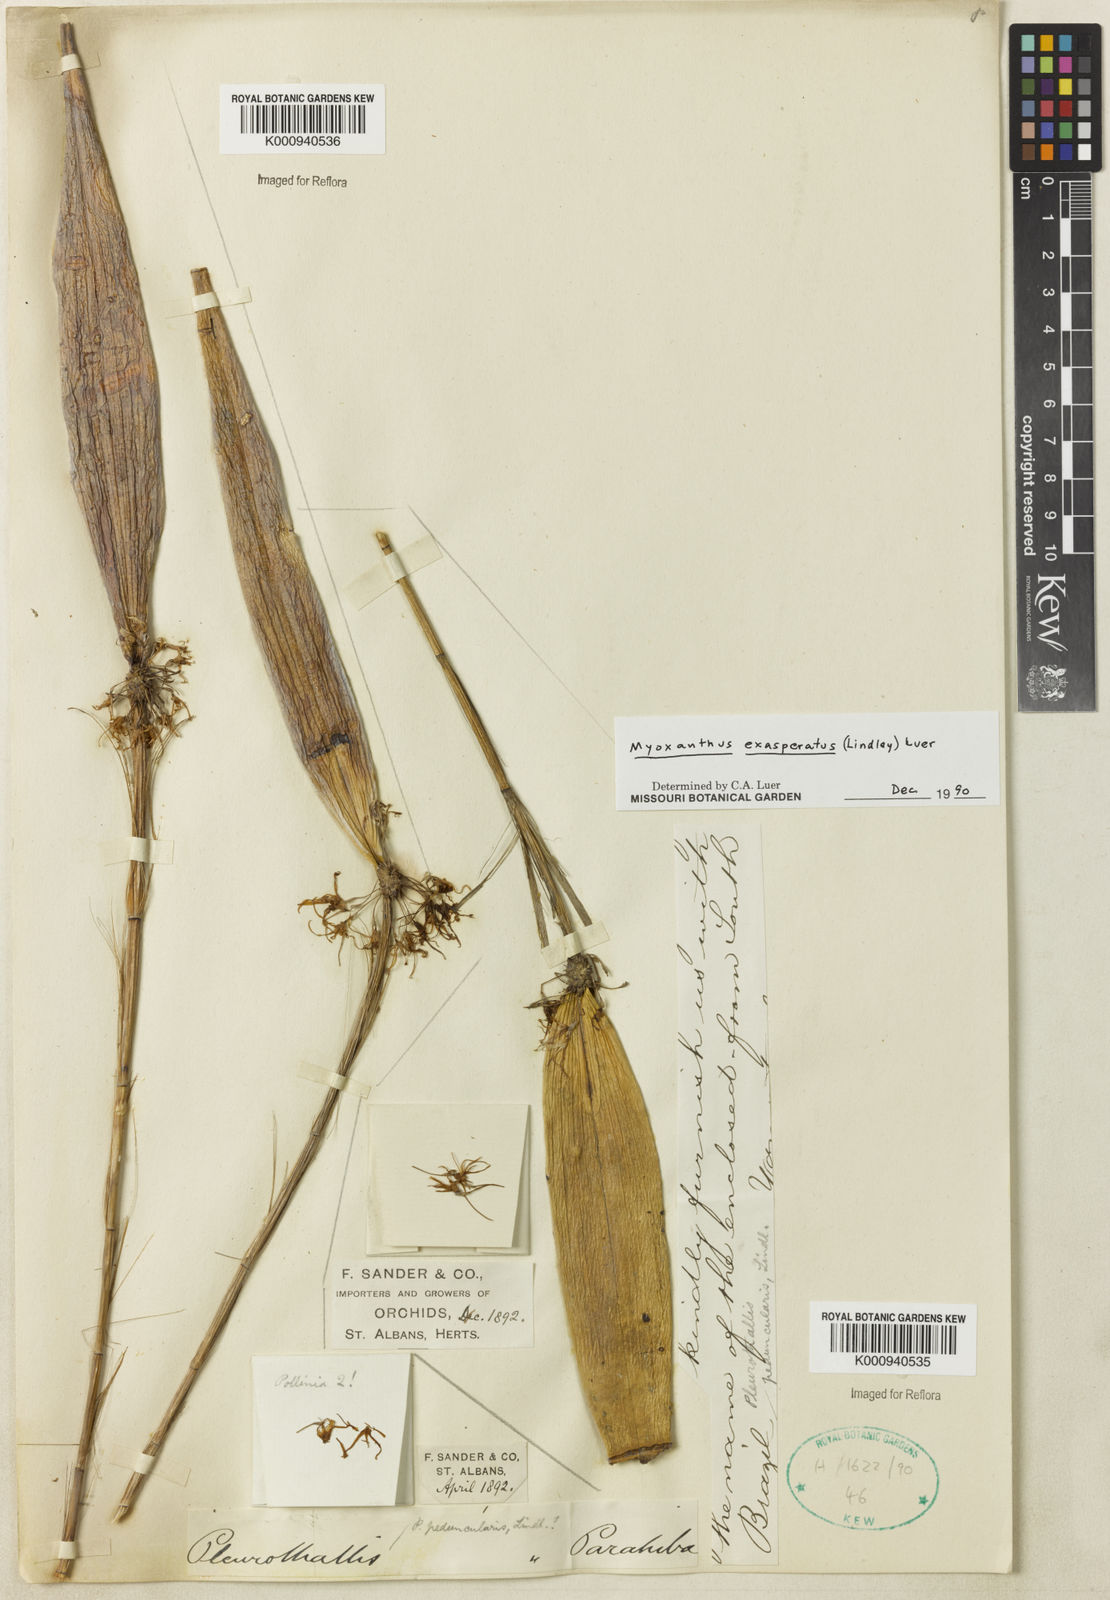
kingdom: Plantae
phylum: Tracheophyta
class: Liliopsida
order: Asparagales
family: Orchidaceae
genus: Myoxanthus
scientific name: Myoxanthus exasperatus
